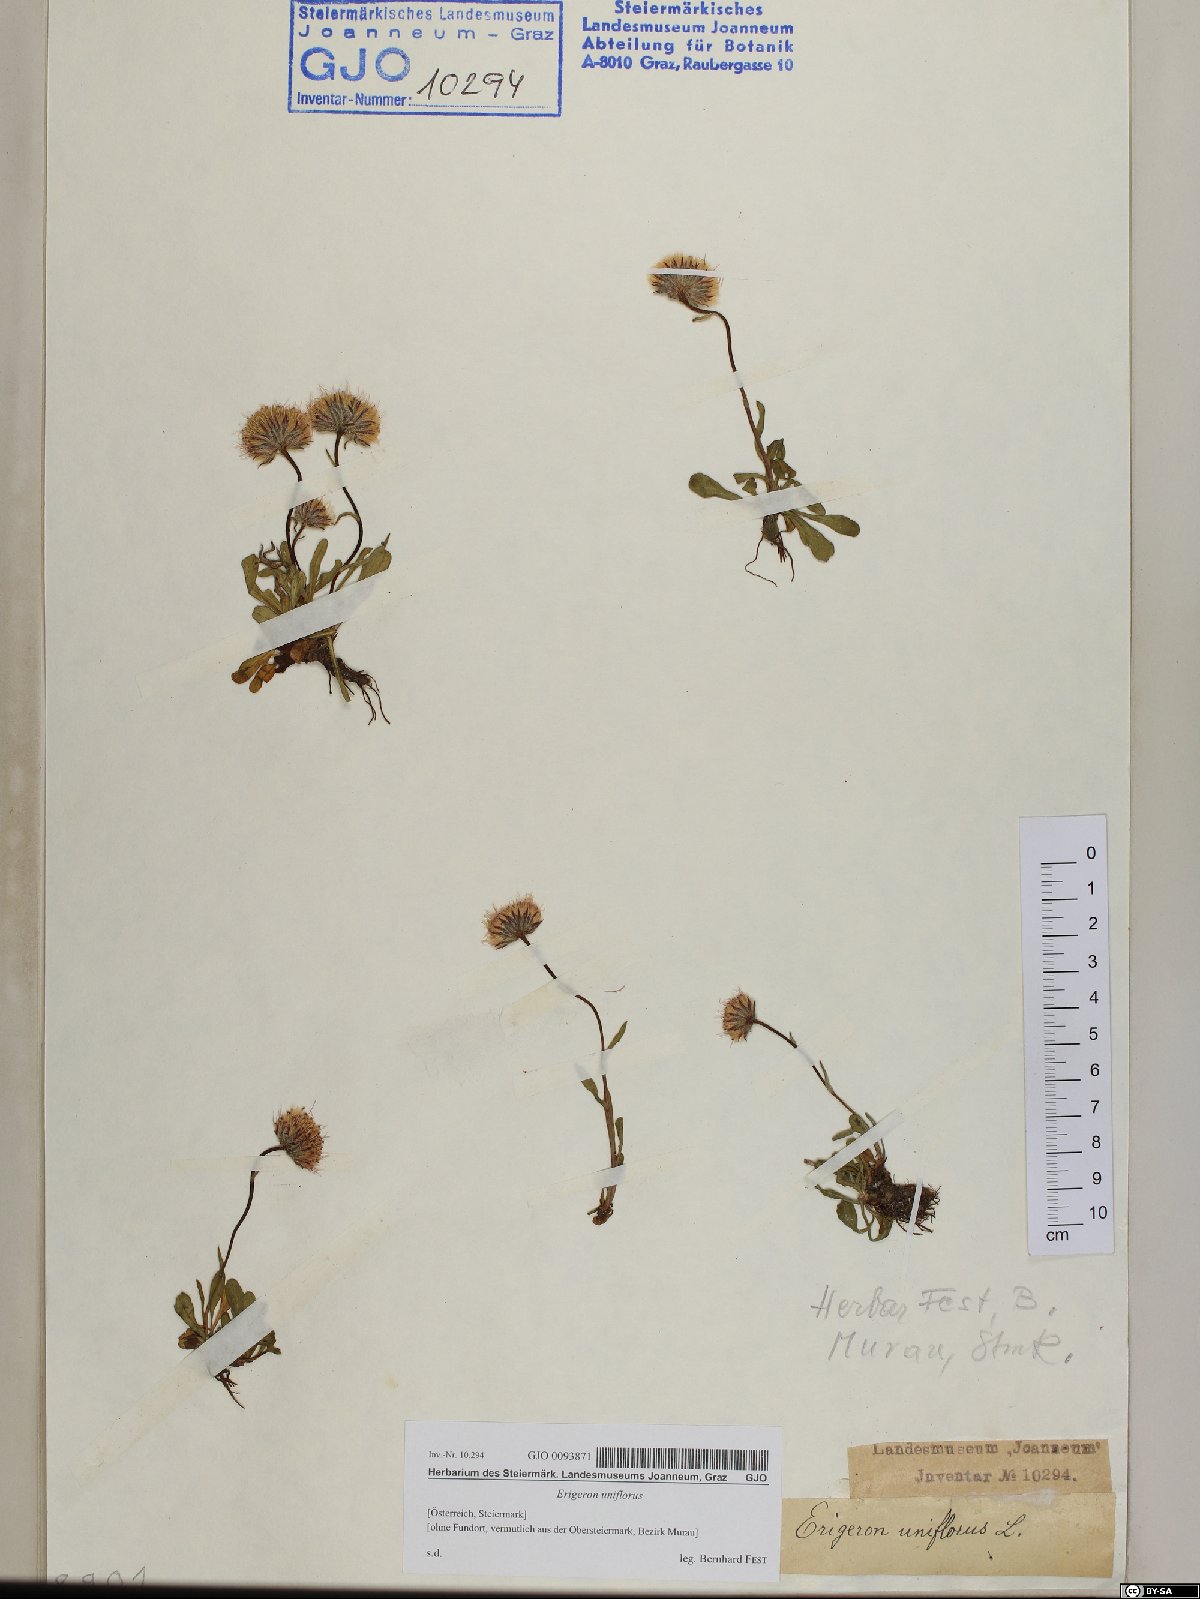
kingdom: Plantae
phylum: Tracheophyta
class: Magnoliopsida
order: Asterales
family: Asteraceae
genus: Erigeron
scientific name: Erigeron uniflorus
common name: Northern daisy
